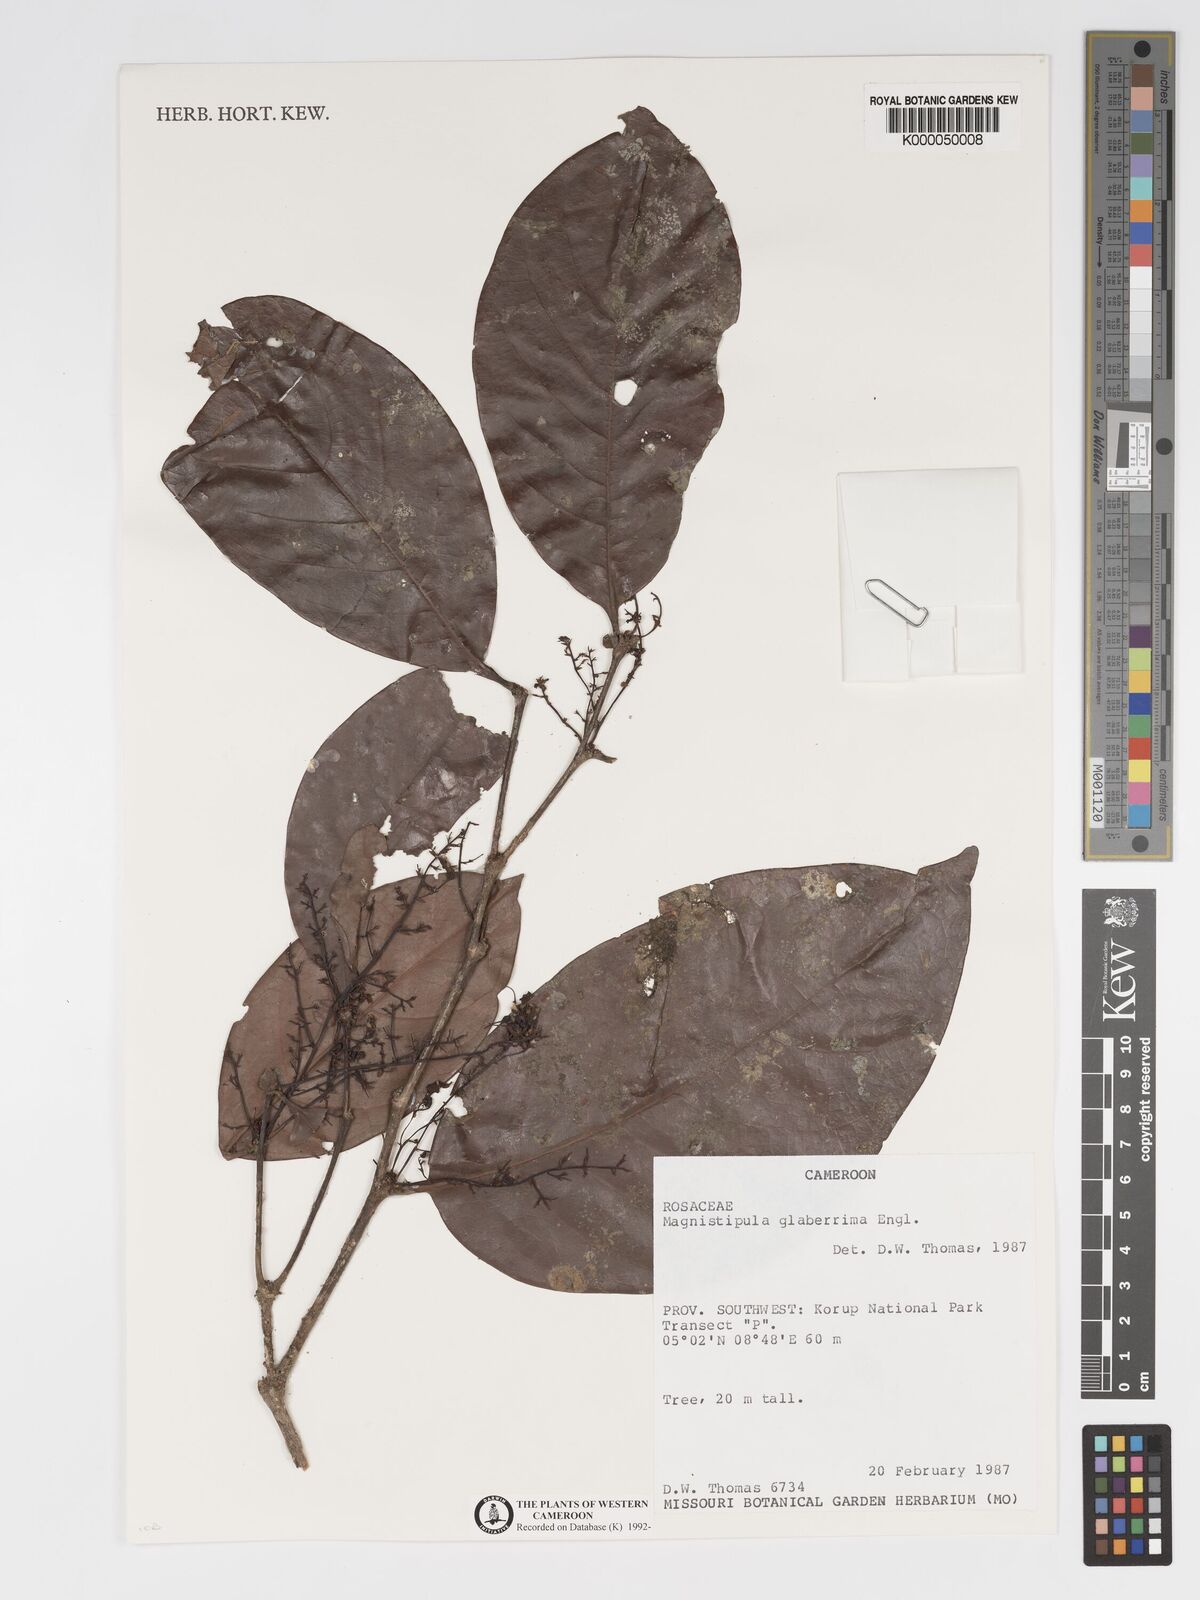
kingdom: Plantae
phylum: Tracheophyta
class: Magnoliopsida
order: Malpighiales
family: Chrysobalanaceae
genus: Magnistipula
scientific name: Magnistipula glaberrima
